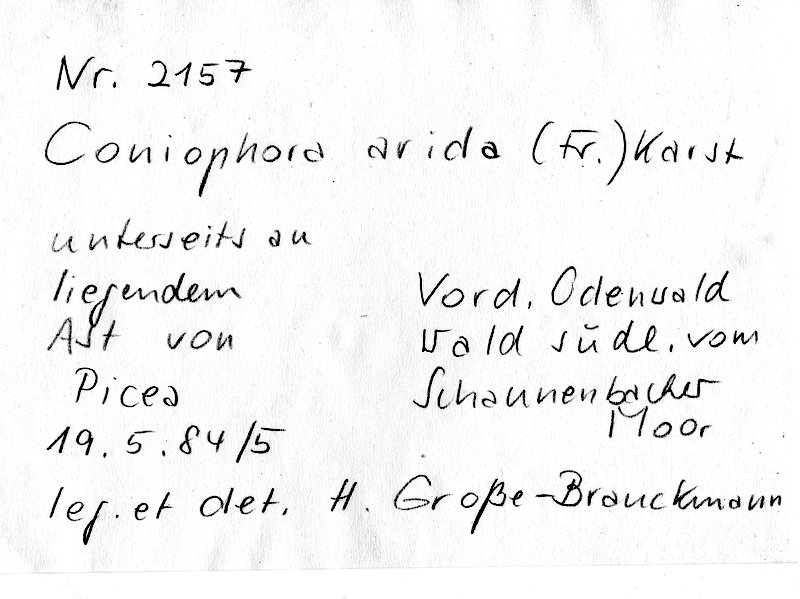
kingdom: Plantae
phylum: Tracheophyta
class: Pinopsida
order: Pinales
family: Pinaceae
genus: Picea
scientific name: Picea
